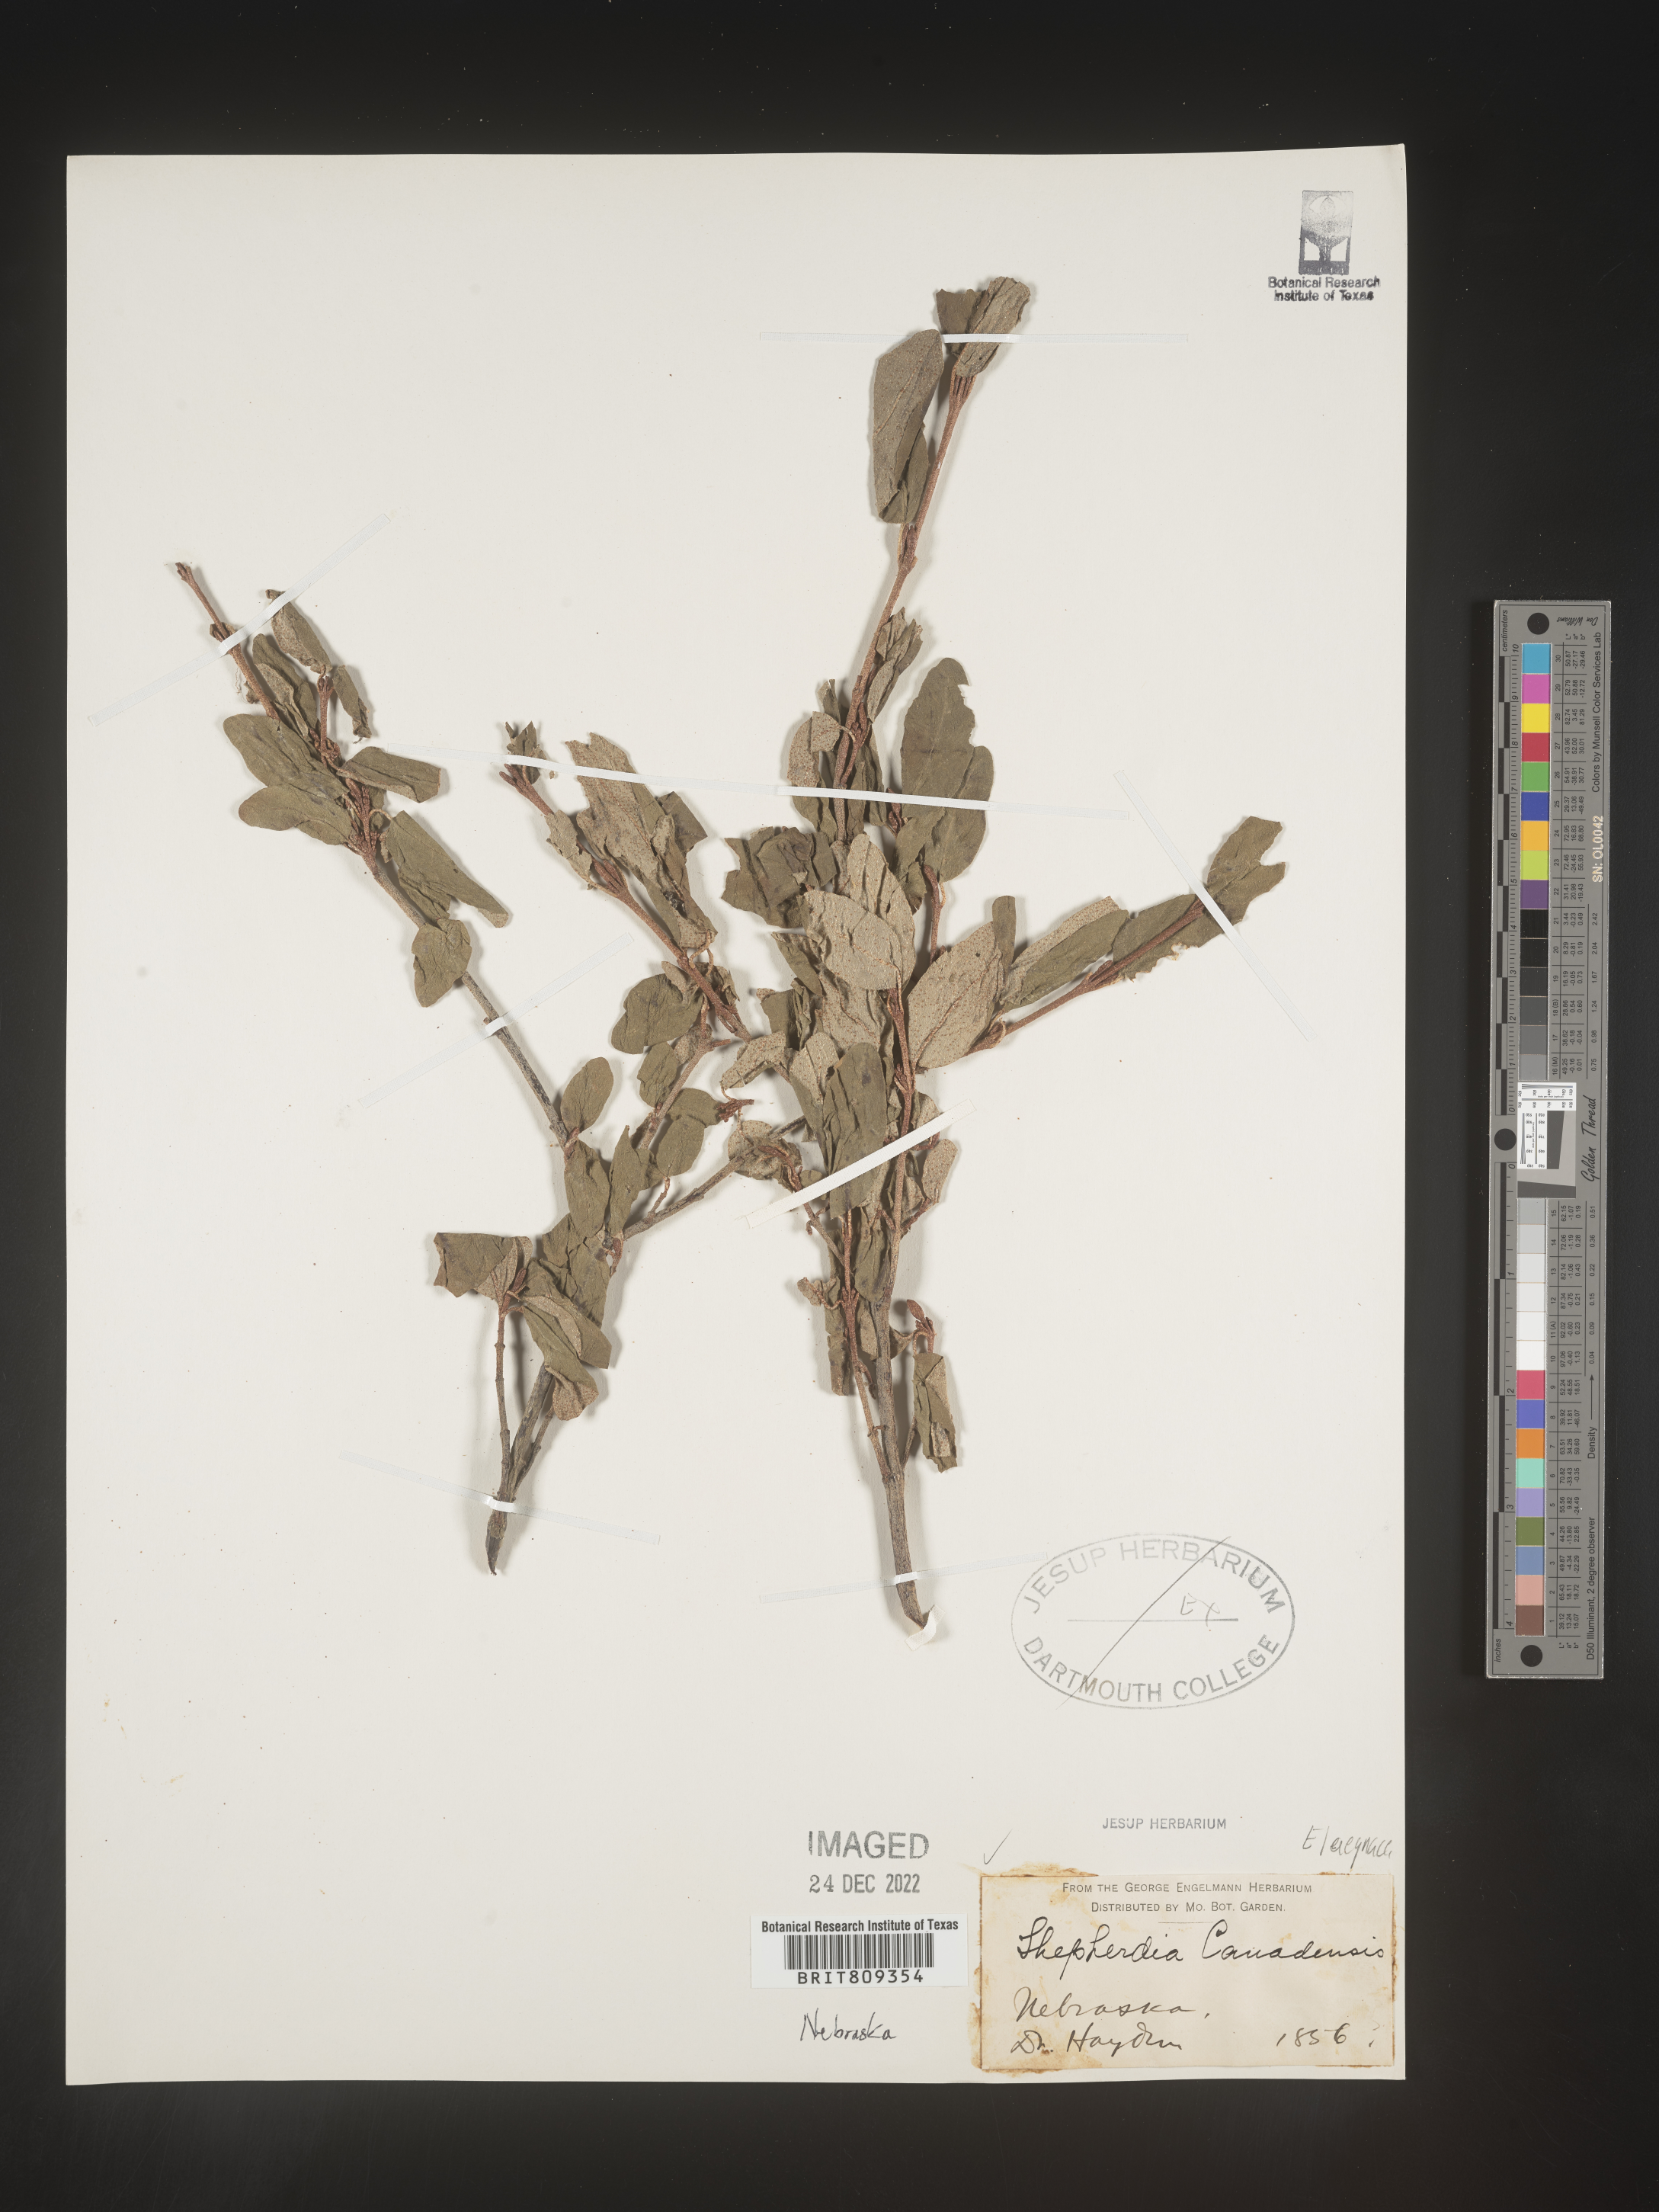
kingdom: Plantae
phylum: Tracheophyta
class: Magnoliopsida
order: Rosales
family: Elaeagnaceae
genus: Shepherdia
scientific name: Shepherdia argentea
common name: Silver buffaloberry
